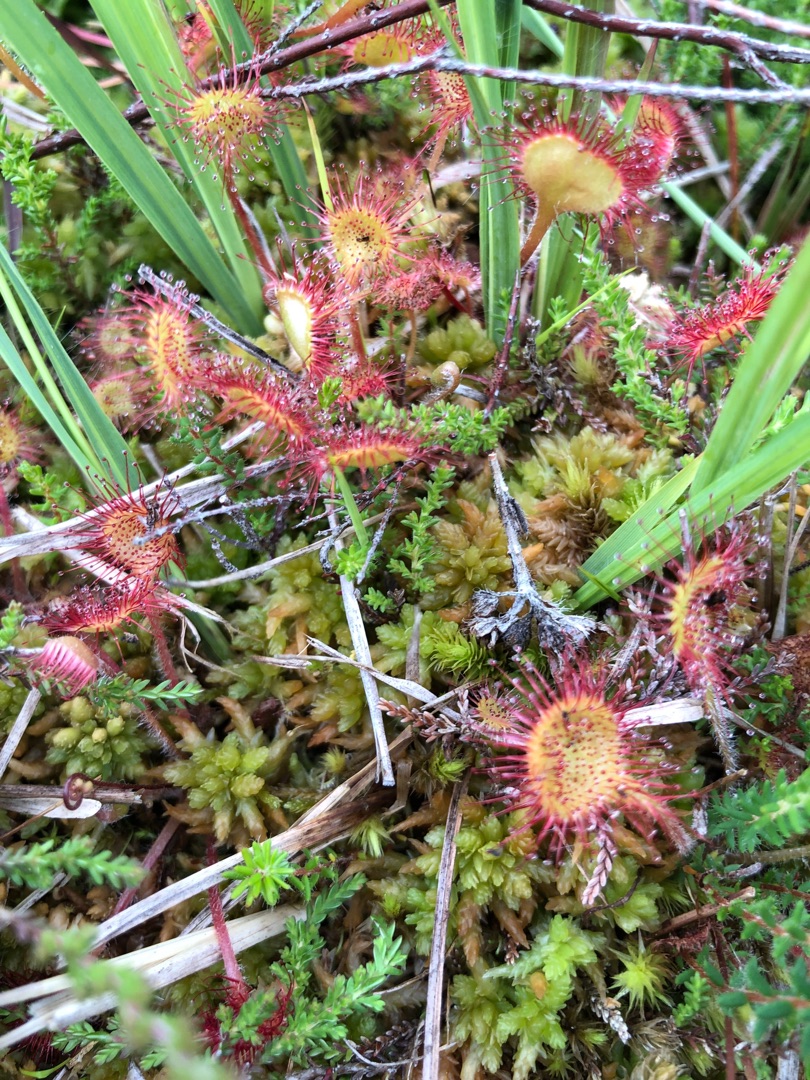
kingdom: Plantae
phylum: Tracheophyta
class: Magnoliopsida
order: Caryophyllales
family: Droseraceae
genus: Drosera
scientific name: Drosera rotundifolia
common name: Rundbladet soldug
